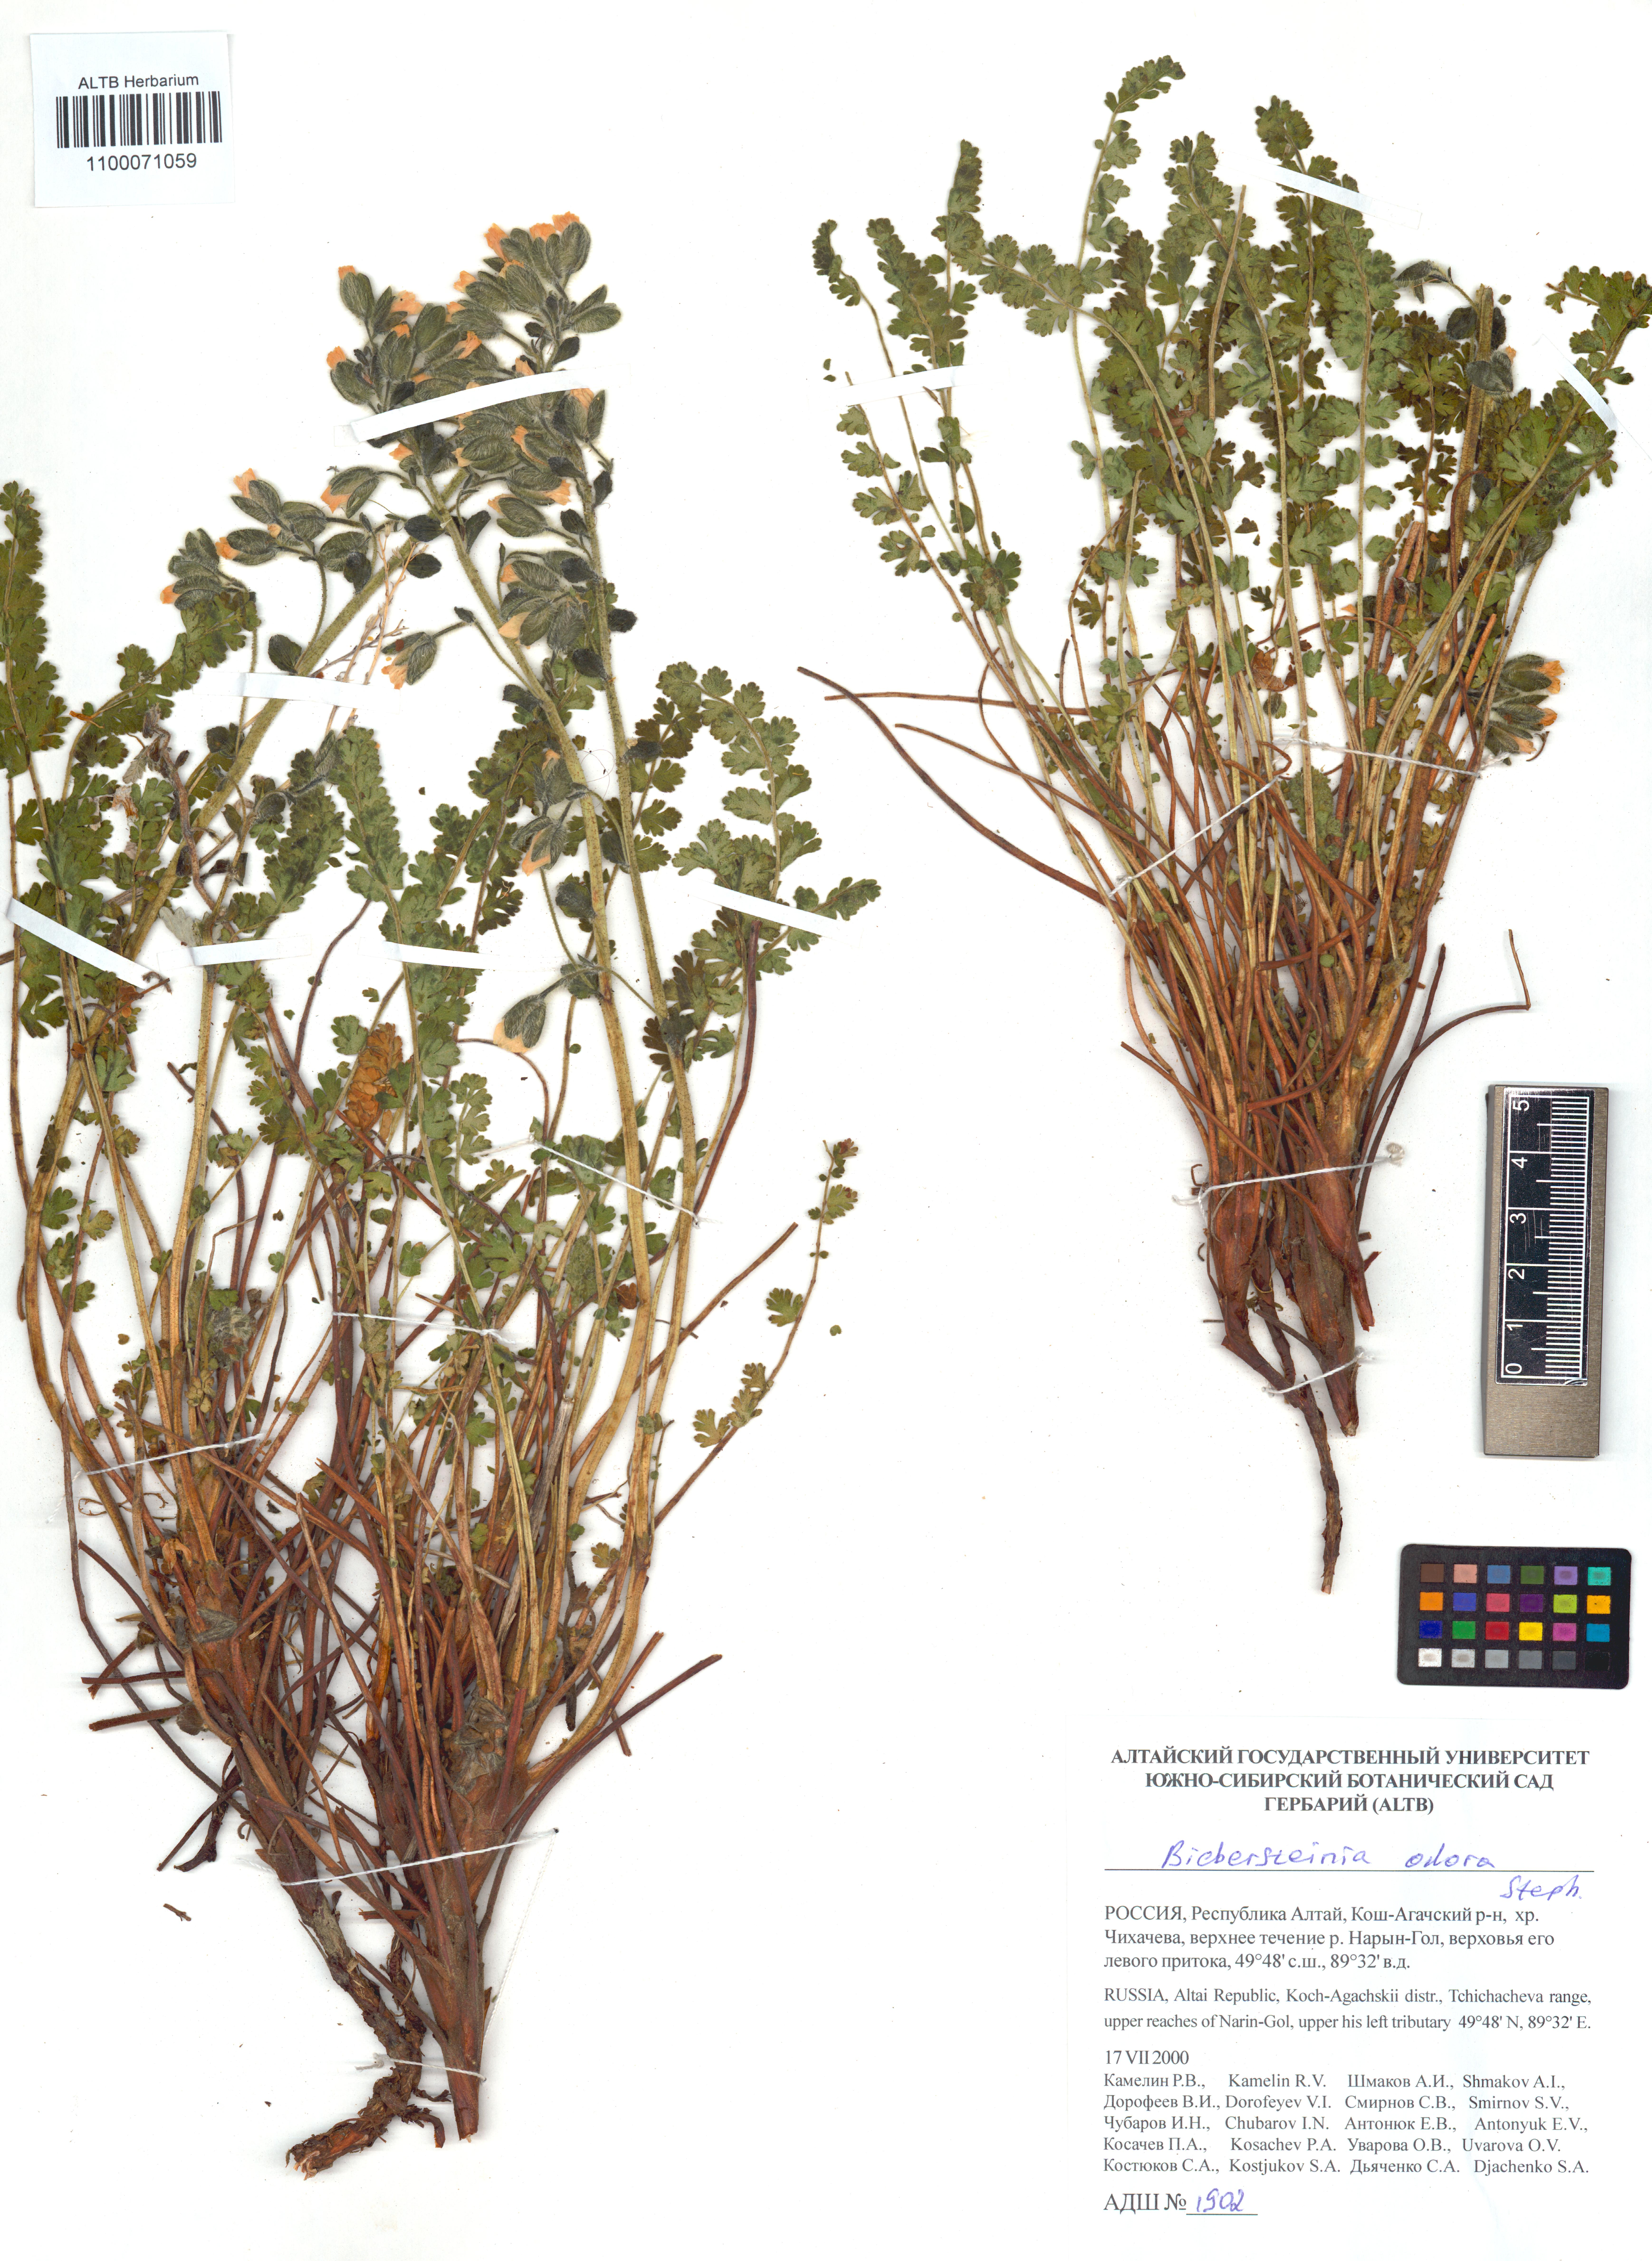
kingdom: Plantae
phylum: Tracheophyta
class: Magnoliopsida
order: Sapindales
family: Biebersteiniaceae
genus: Biebersteinia
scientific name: Biebersteinia odora
